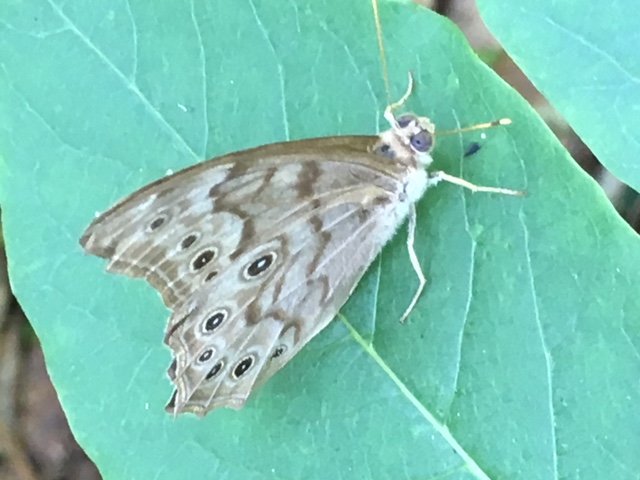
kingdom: Animalia
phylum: Arthropoda
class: Insecta
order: Lepidoptera
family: Nymphalidae
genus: Lethe
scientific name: Lethe creola
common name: Creole Pearly-Eye
